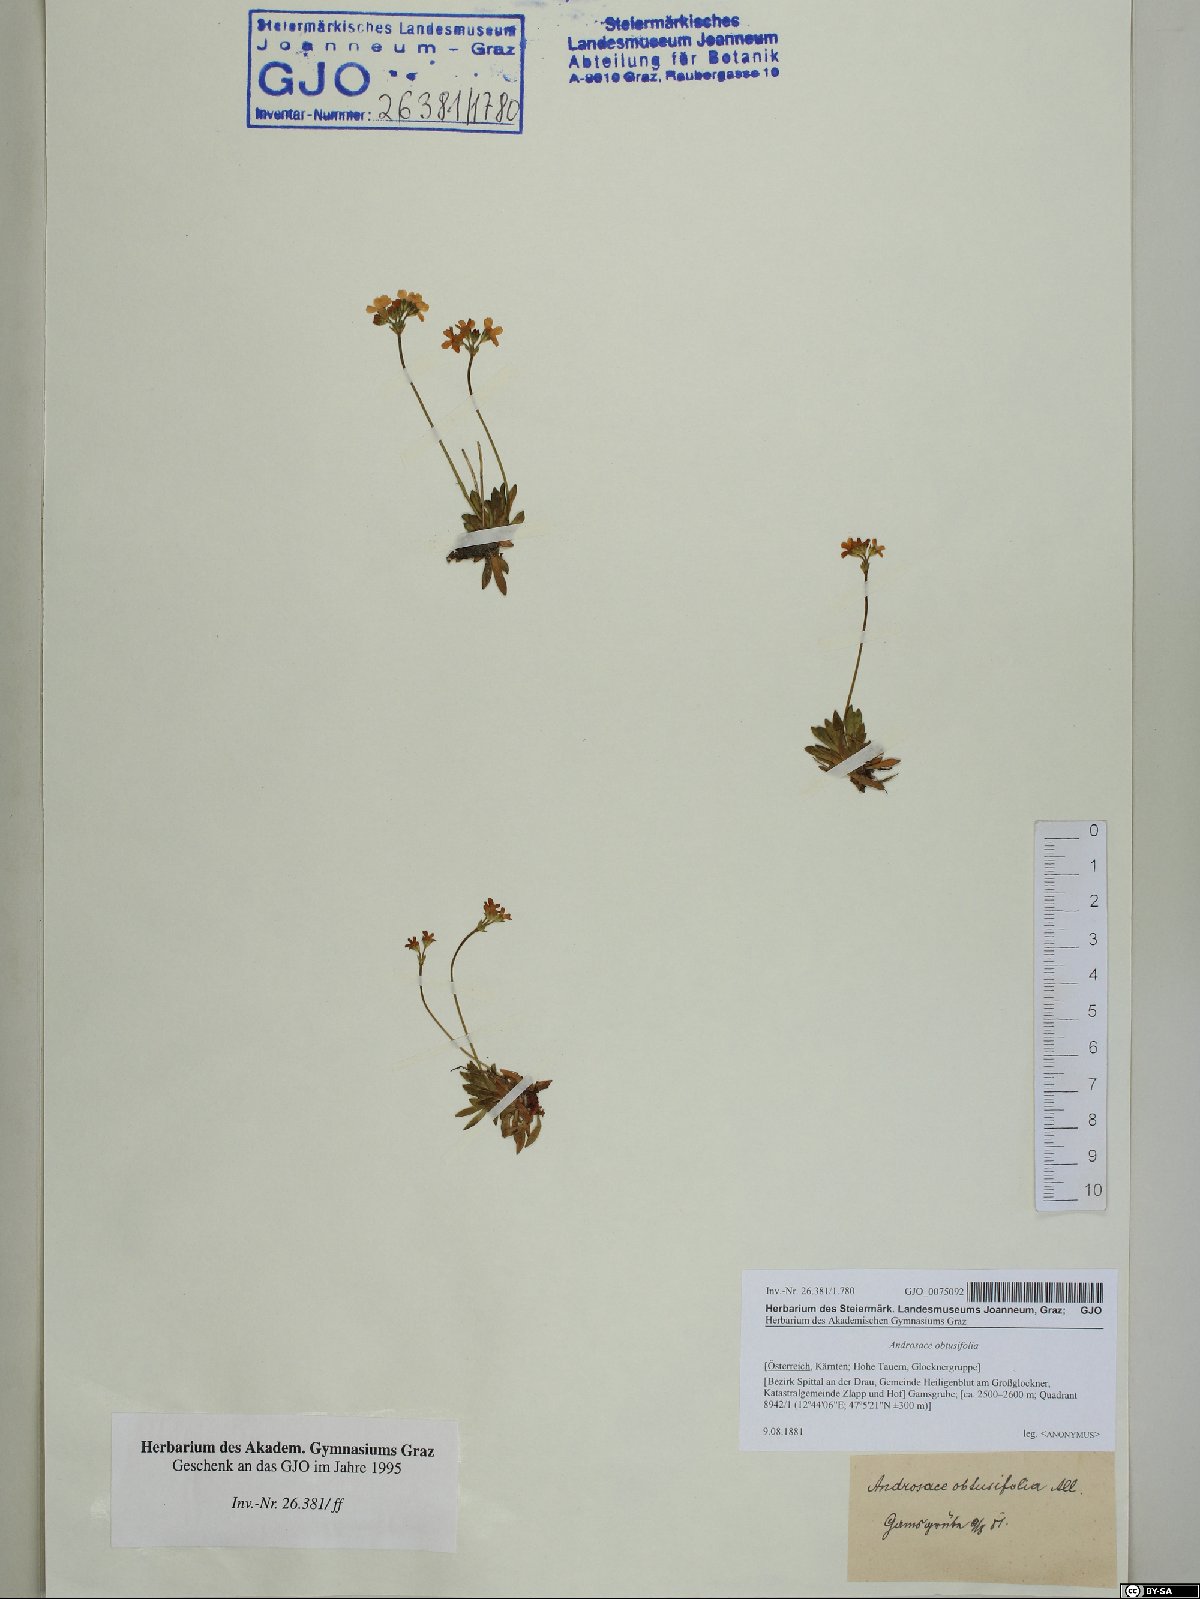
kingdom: Plantae
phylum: Tracheophyta
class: Magnoliopsida
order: Ericales
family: Primulaceae
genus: Androsace
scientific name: Androsace obtusifolia
